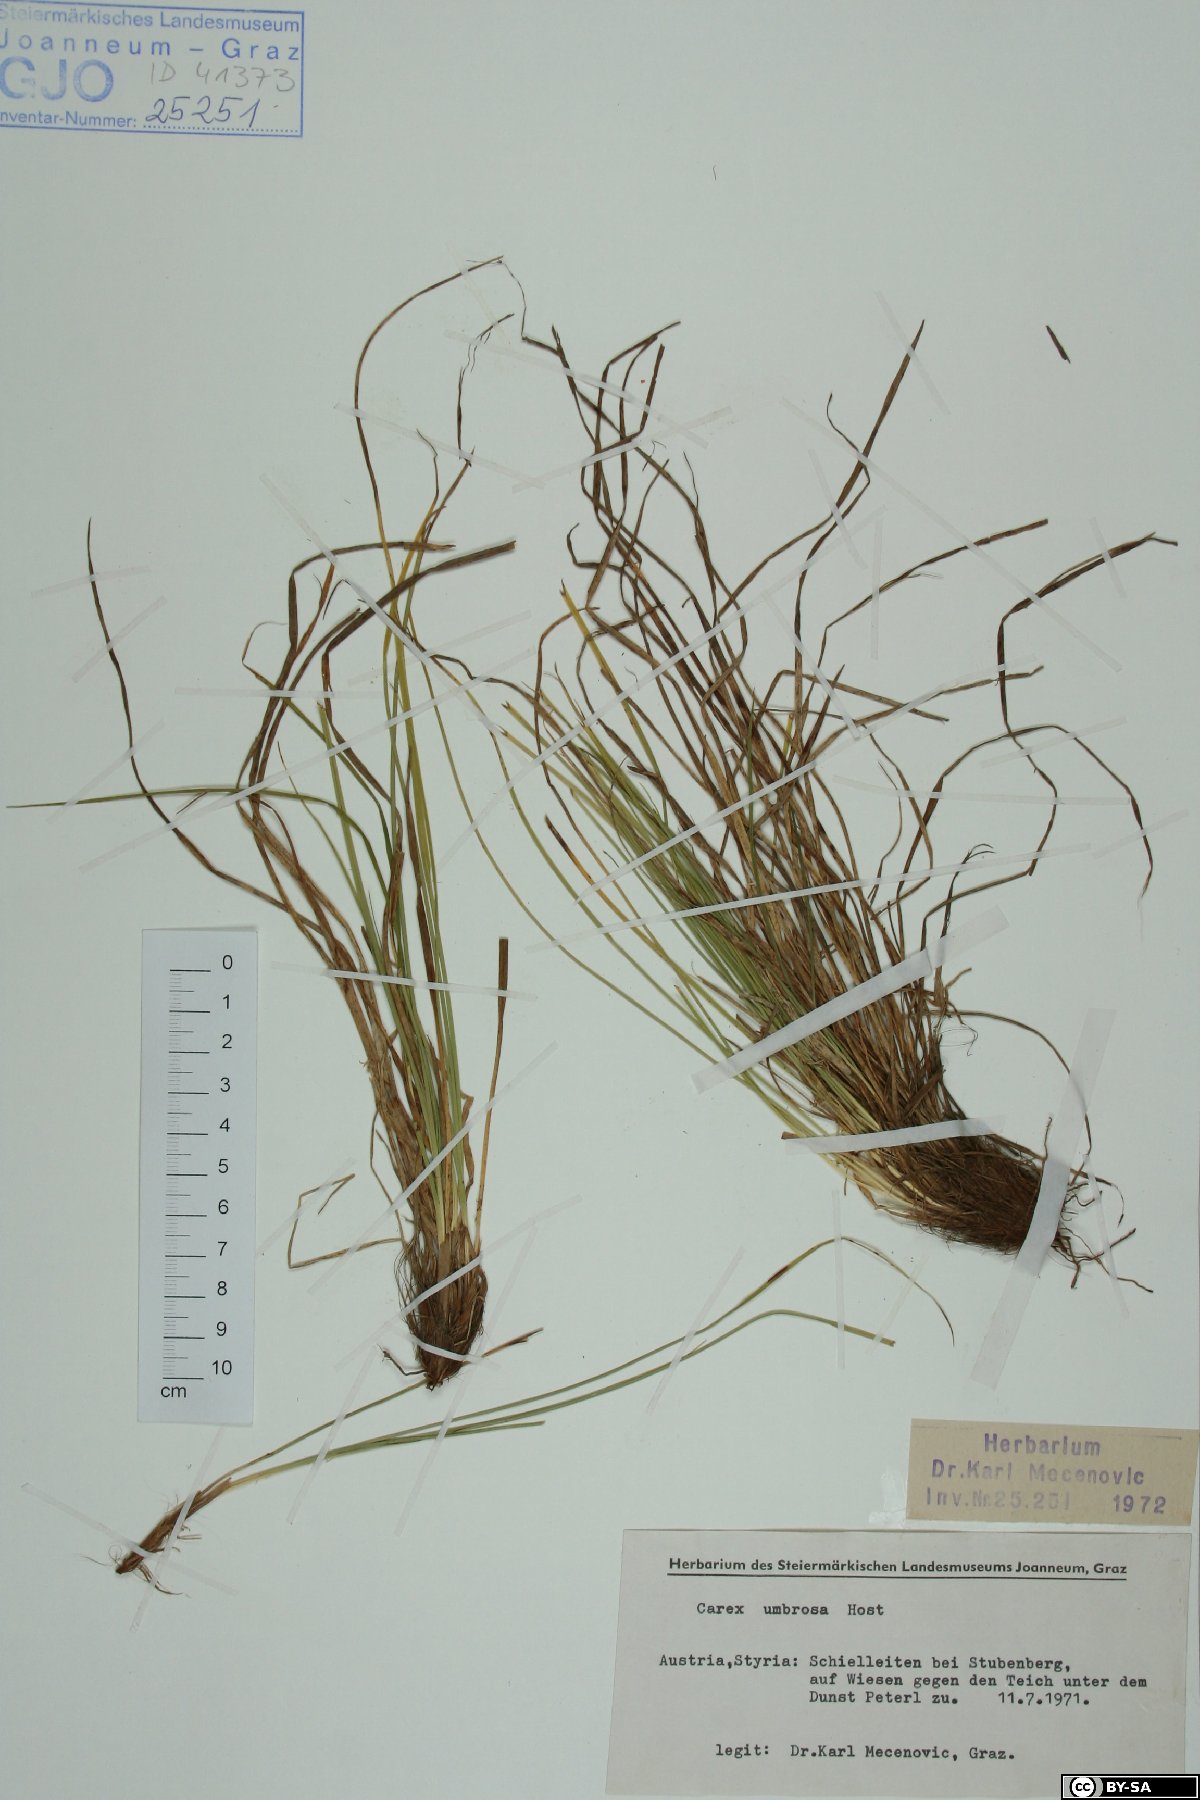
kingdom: Plantae
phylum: Tracheophyta
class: Liliopsida
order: Poales
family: Cyperaceae
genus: Carex
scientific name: Carex umbrosa
